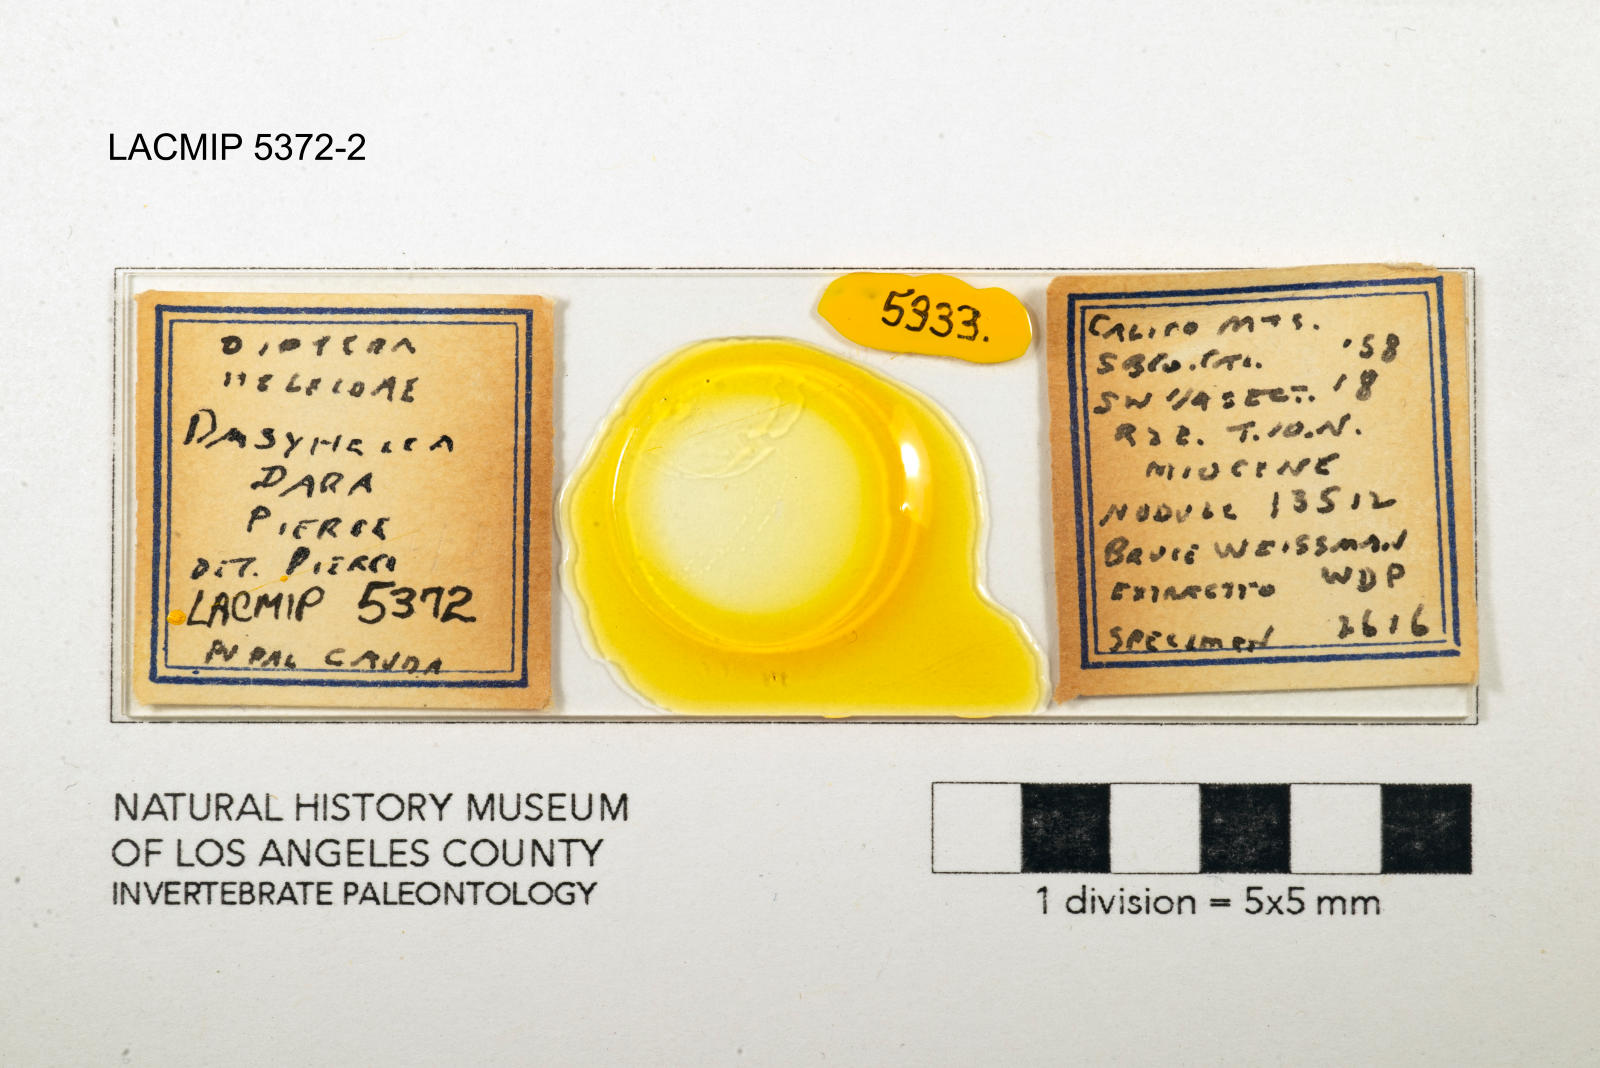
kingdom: Animalia
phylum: Arthropoda
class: Insecta
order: Diptera
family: Ceratopogonidae
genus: Dasyhelea
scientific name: Dasyhelea dara
